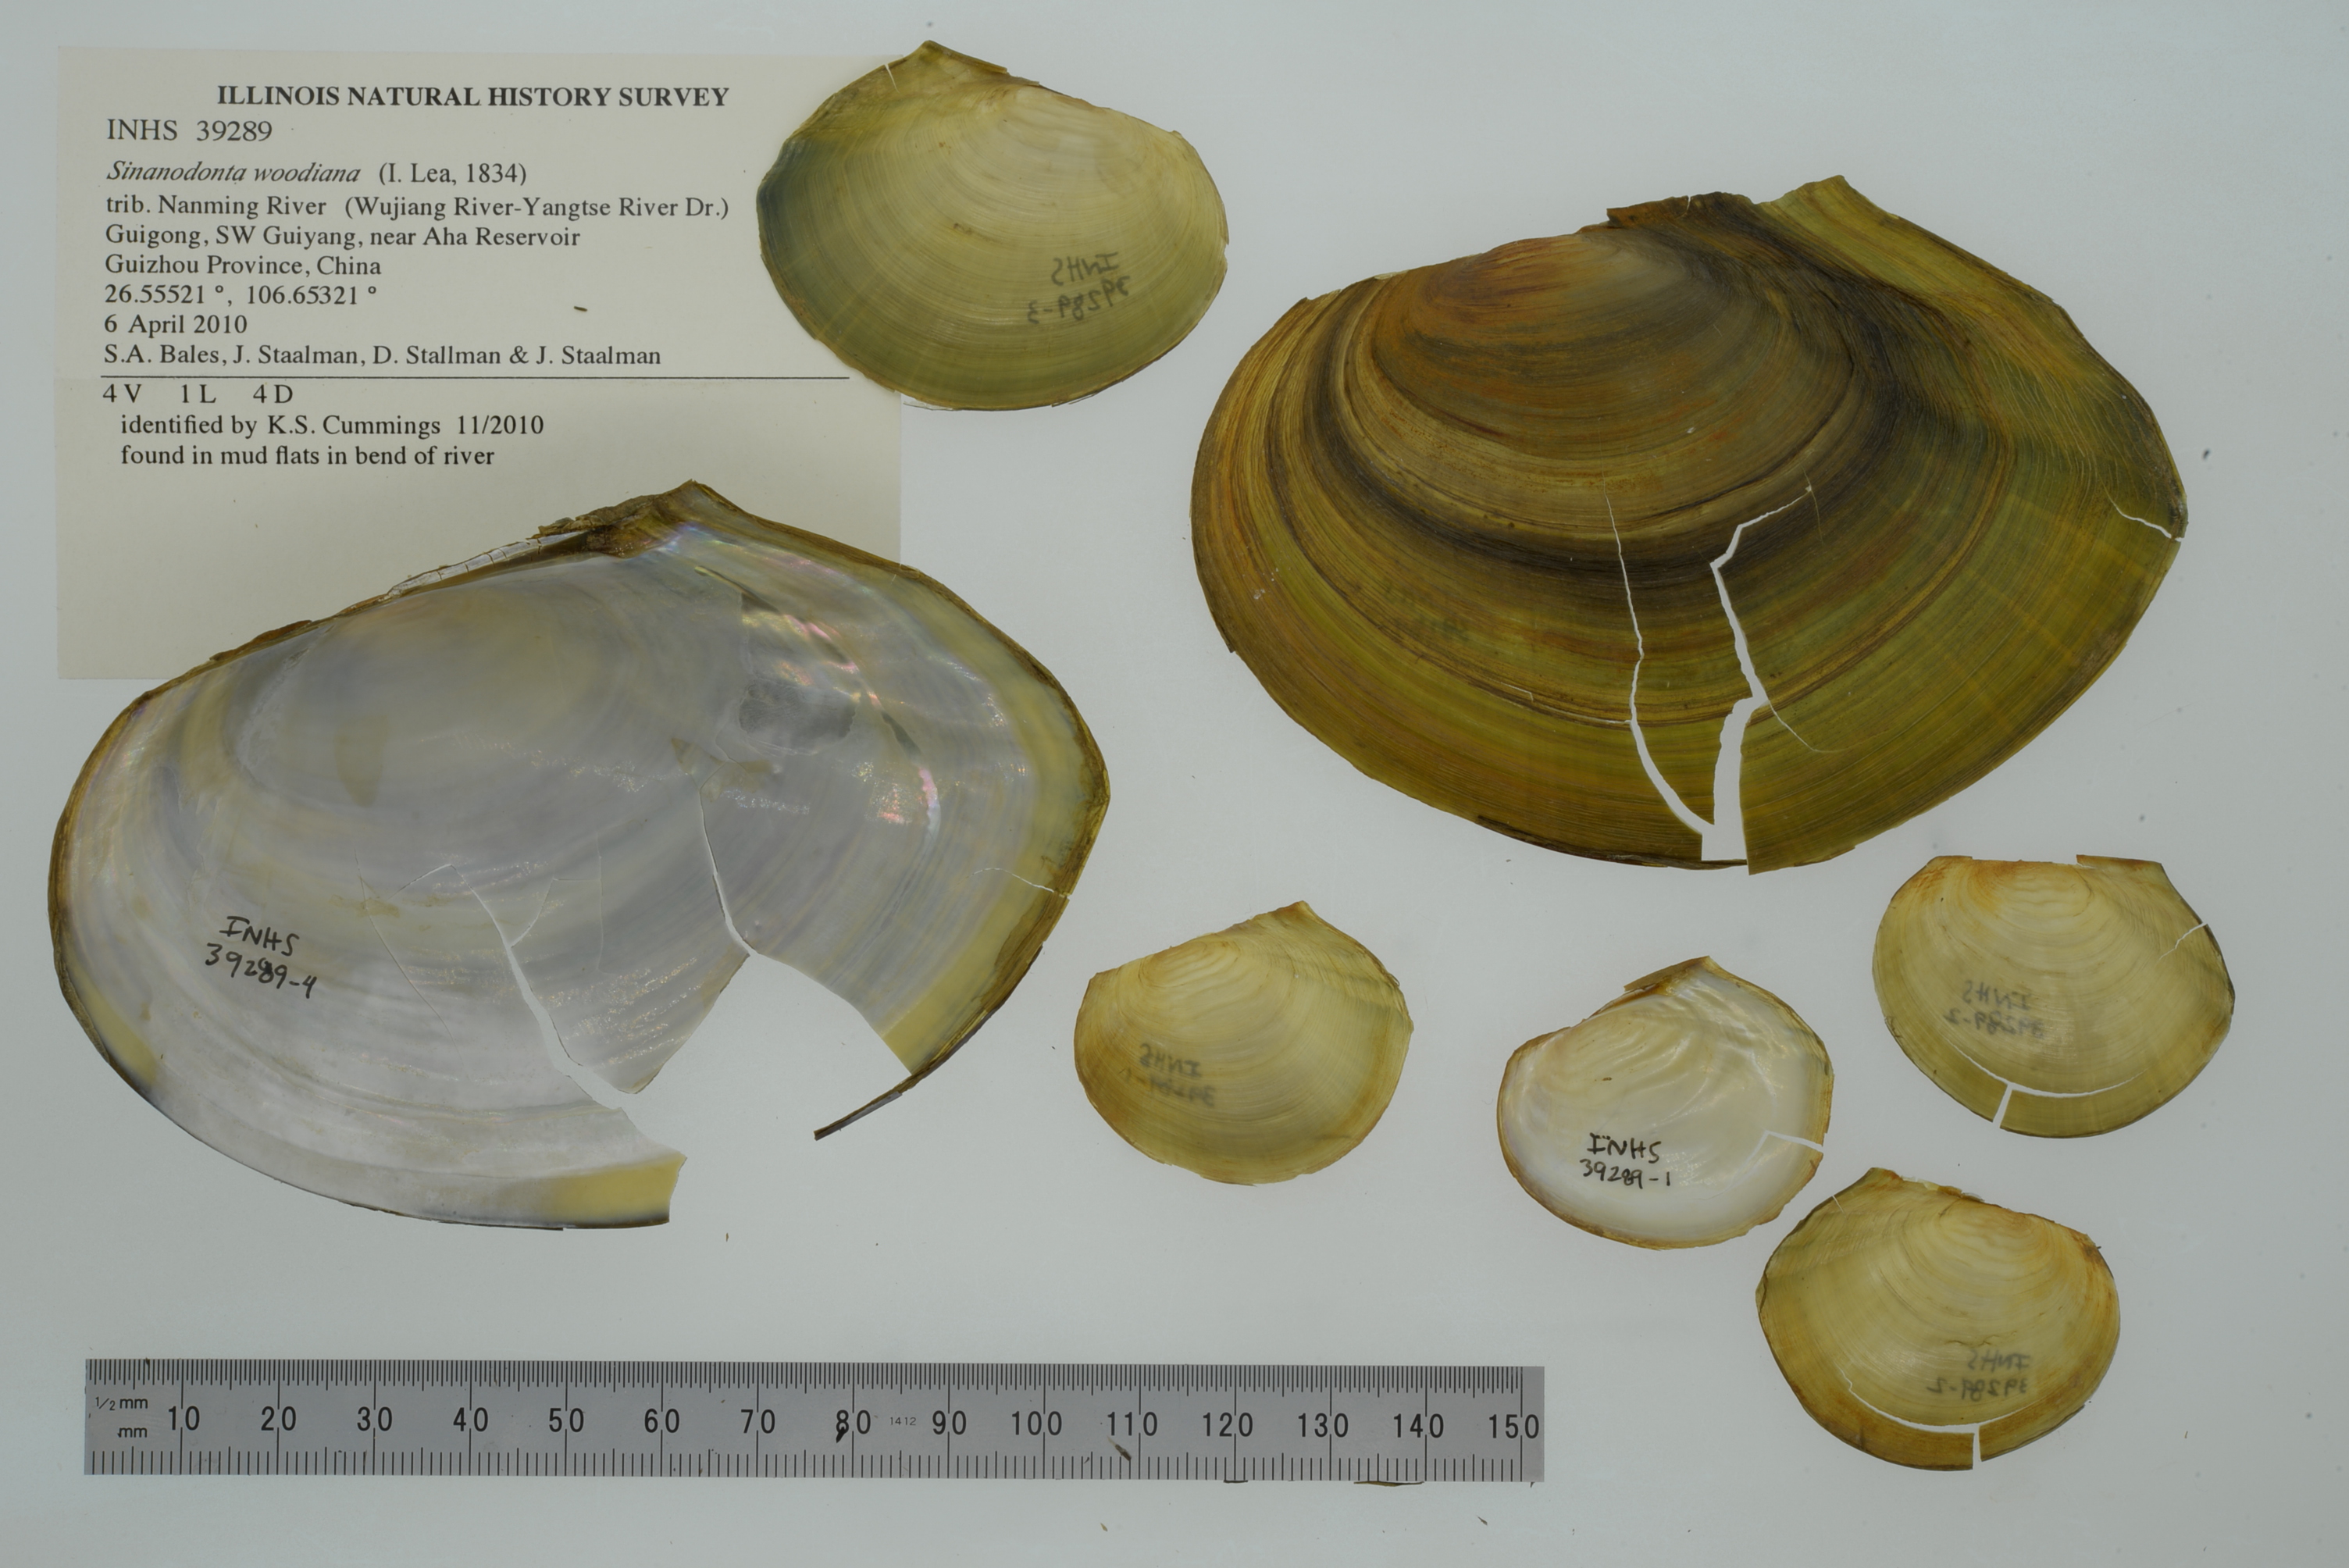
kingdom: Animalia
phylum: Mollusca
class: Bivalvia
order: Unionida
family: Unionidae
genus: Sinanodonta
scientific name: Sinanodonta woodiana
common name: Chinese pond mussel
